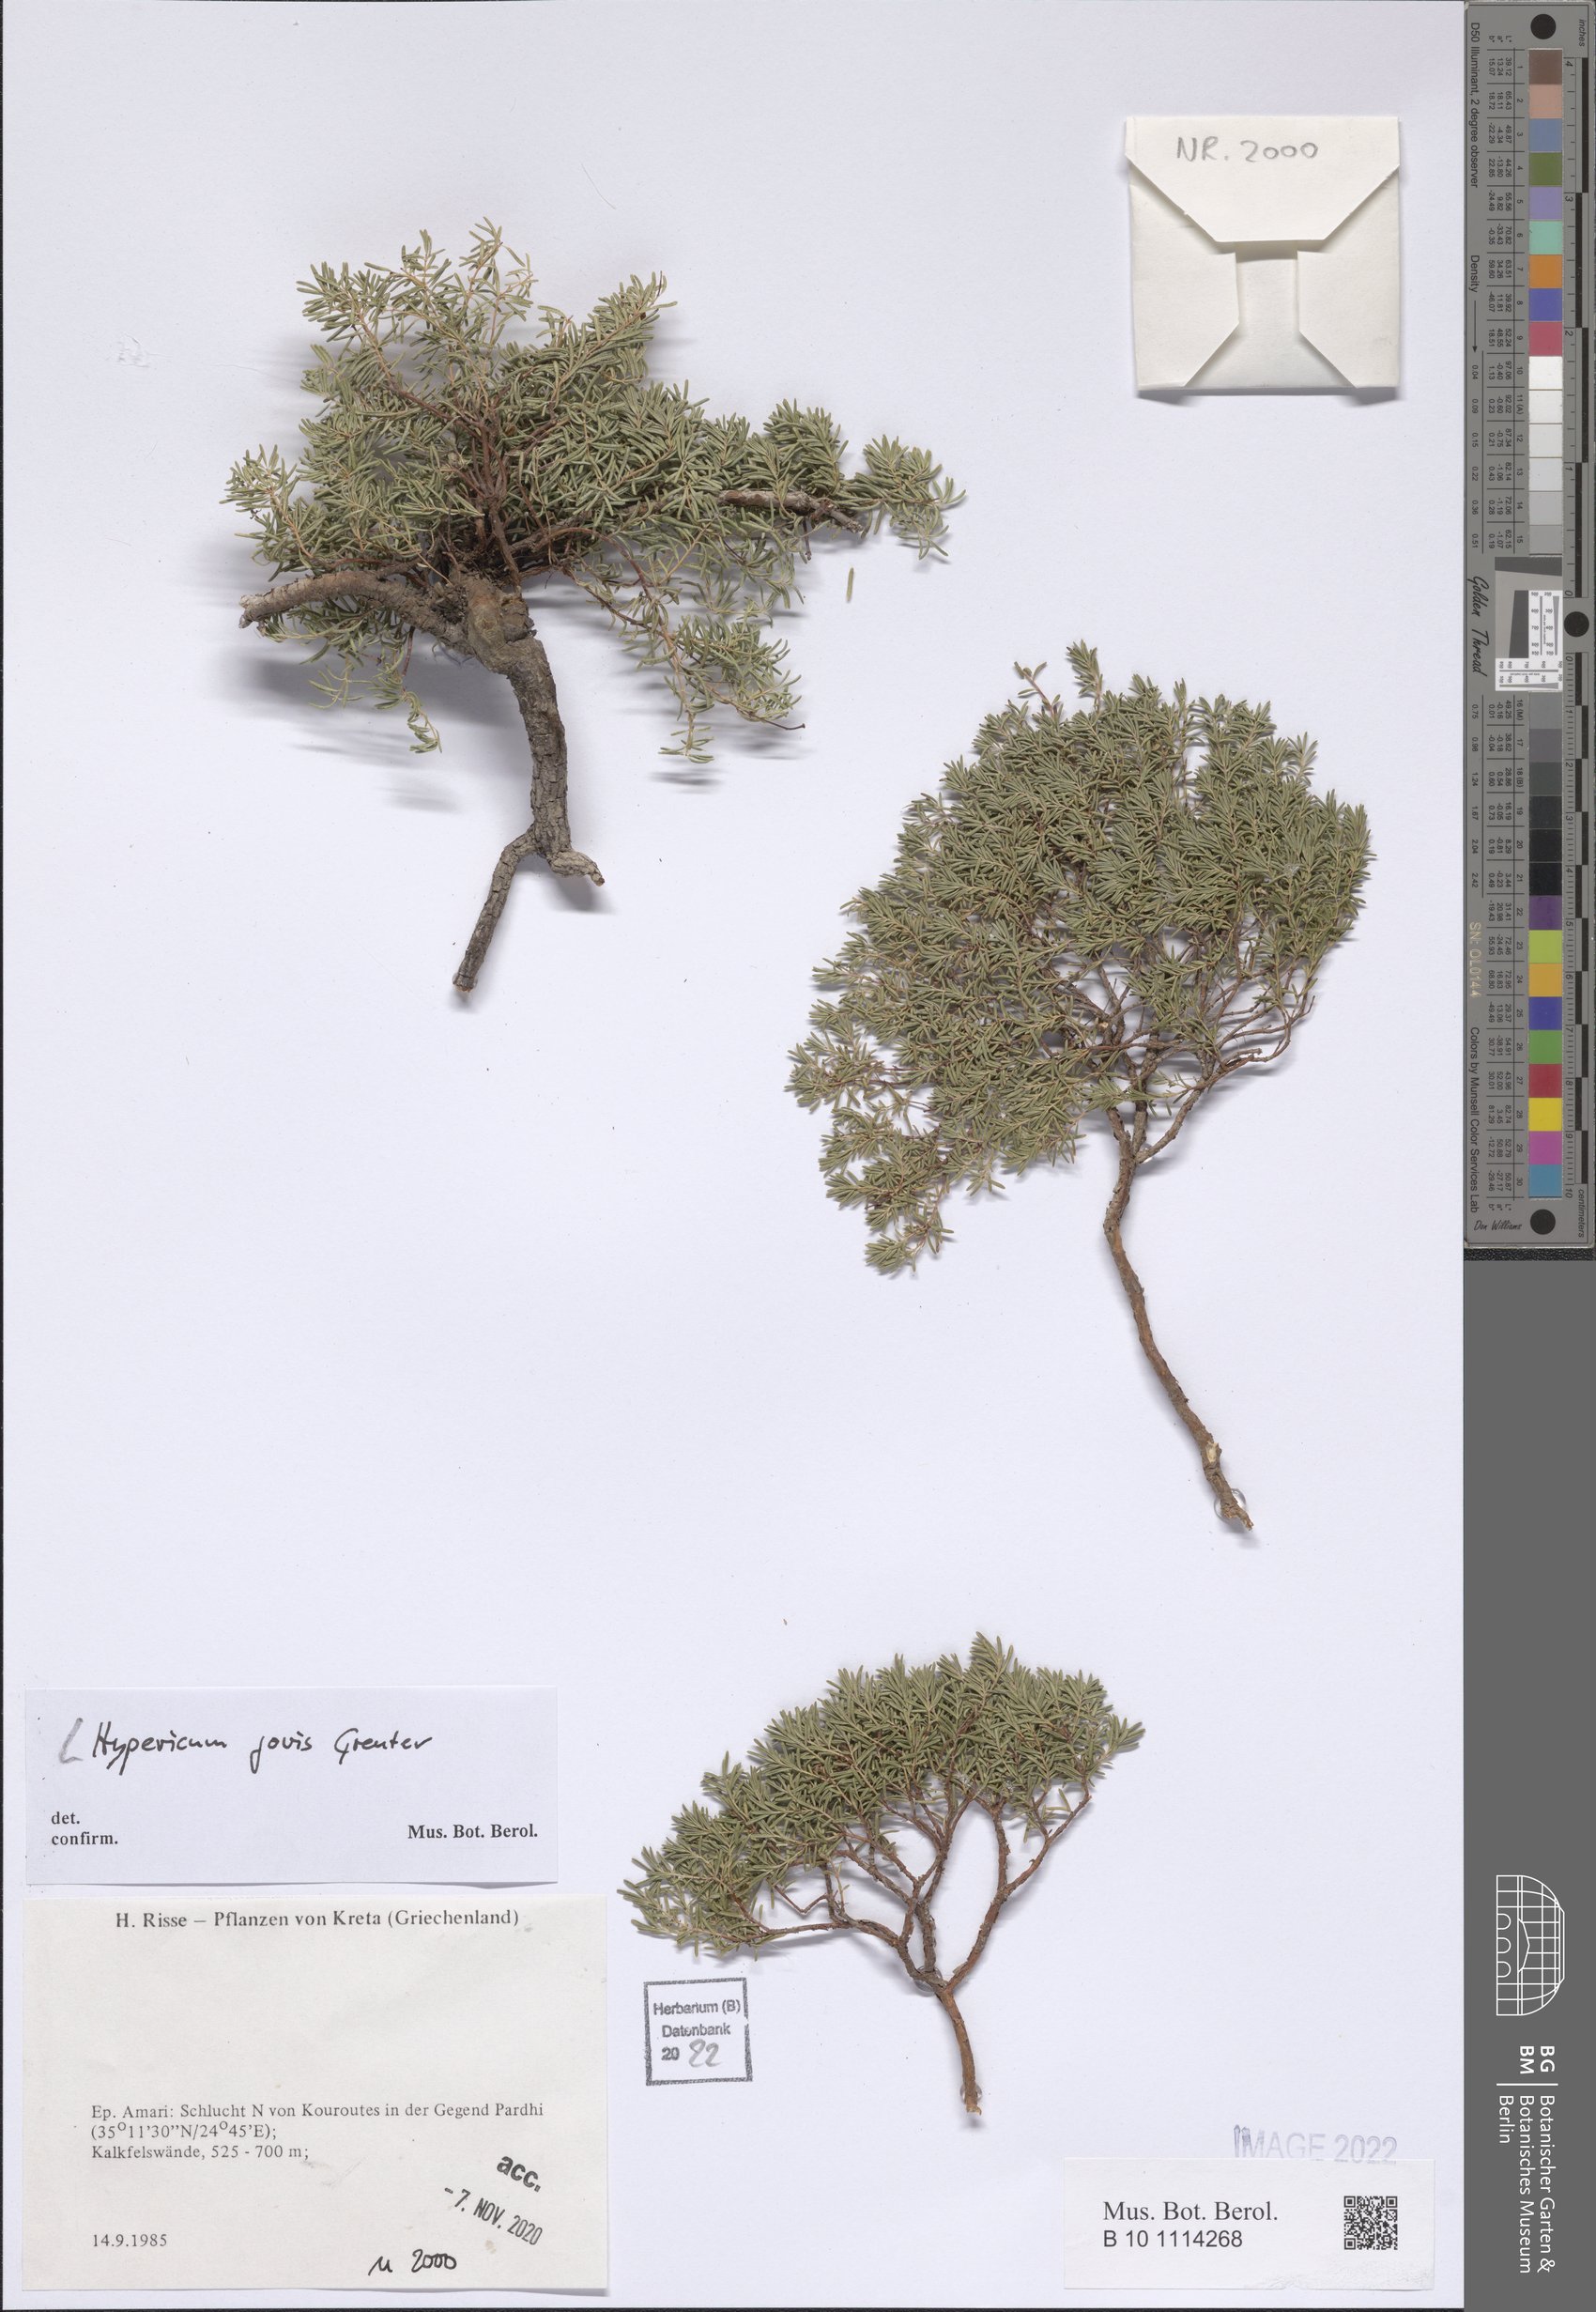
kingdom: Plantae
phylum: Tracheophyta
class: Magnoliopsida
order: Malpighiales
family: Hypericaceae
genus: Hypericum
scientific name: Hypericum jovis
